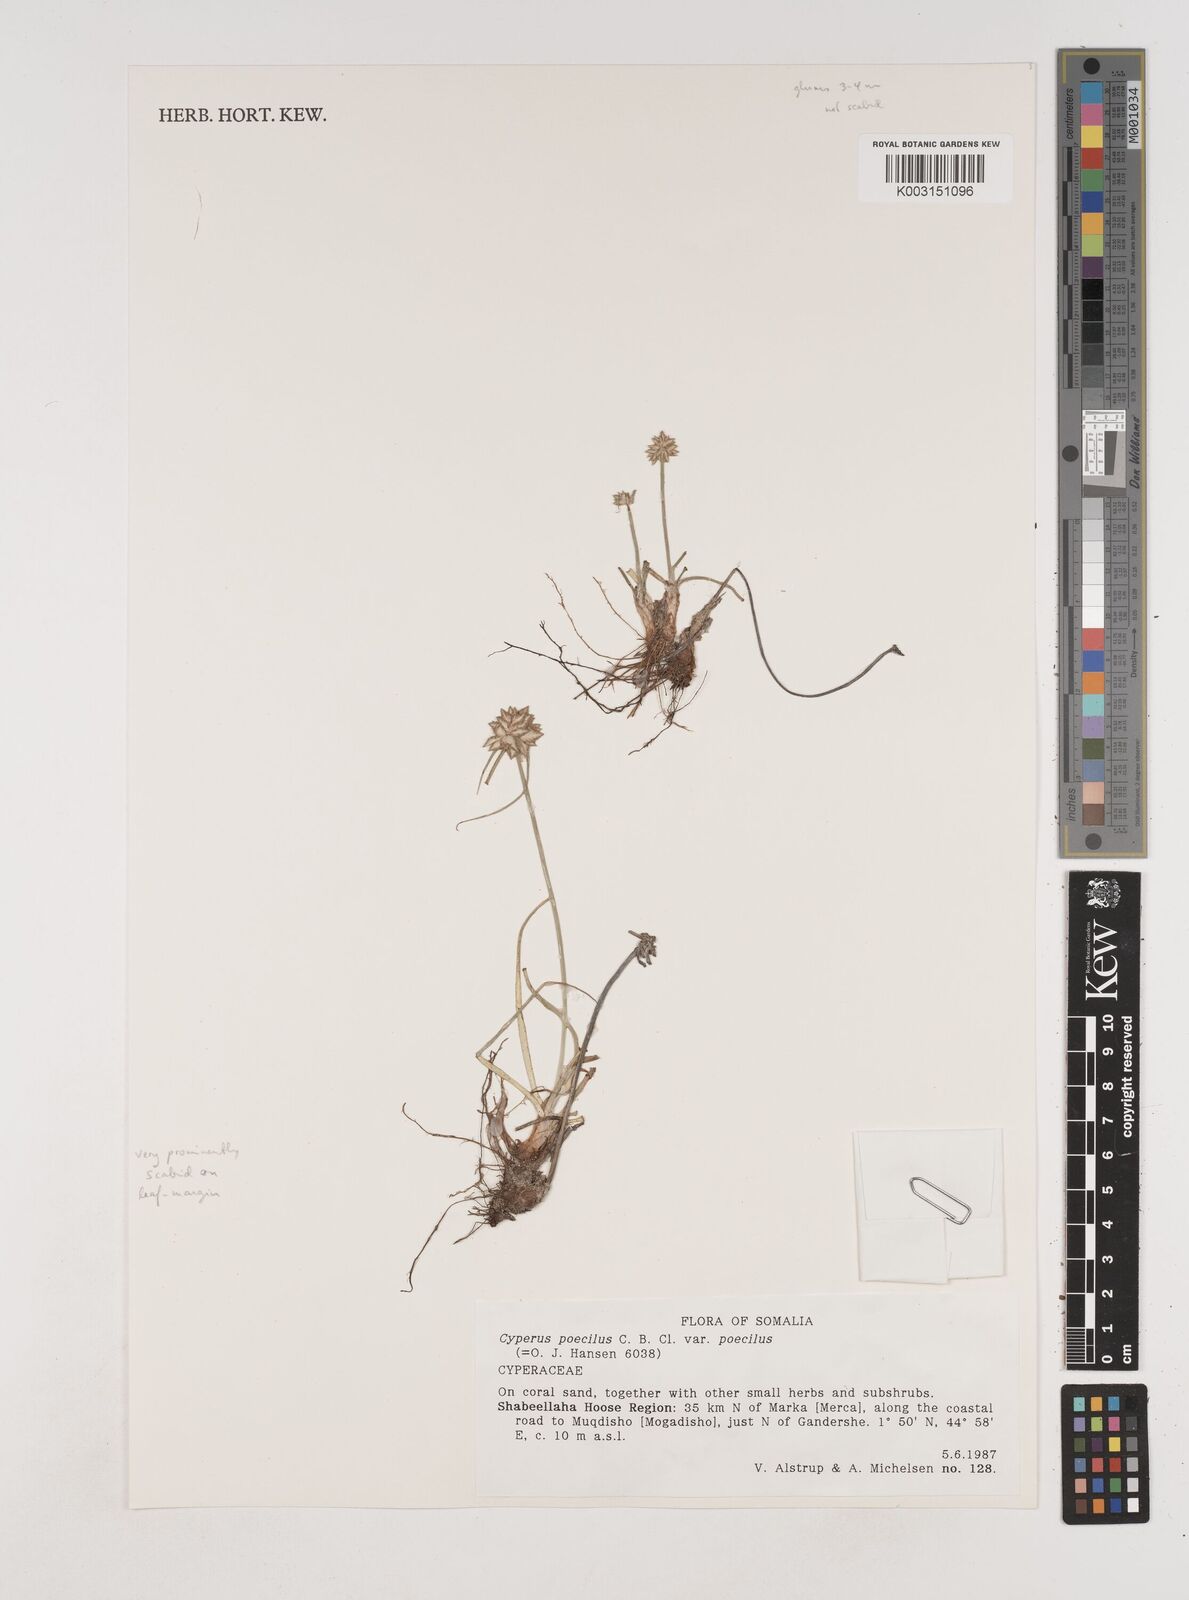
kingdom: Plantae
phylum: Tracheophyta
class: Liliopsida
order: Poales
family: Cyperaceae
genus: Cyperus
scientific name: Cyperus poecilus
